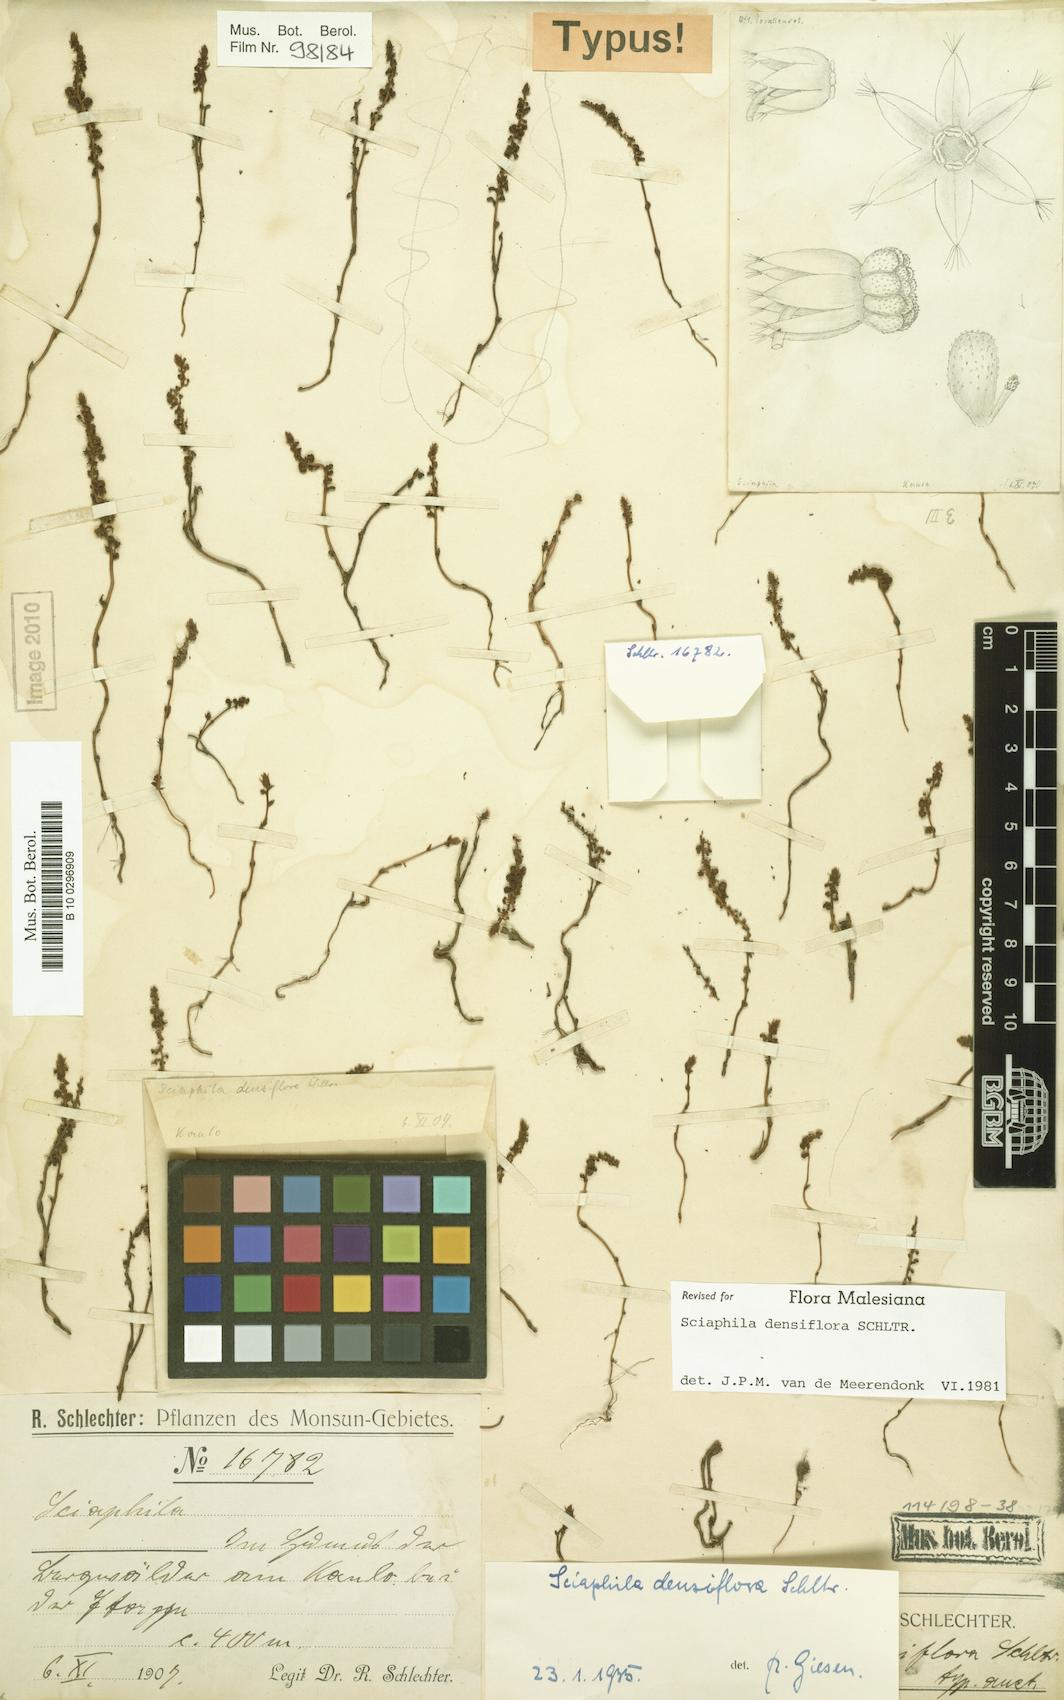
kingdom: Plantae
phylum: Tracheophyta
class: Liliopsida
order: Pandanales
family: Triuridaceae
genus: Sciaphila
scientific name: Sciaphila densiflora
